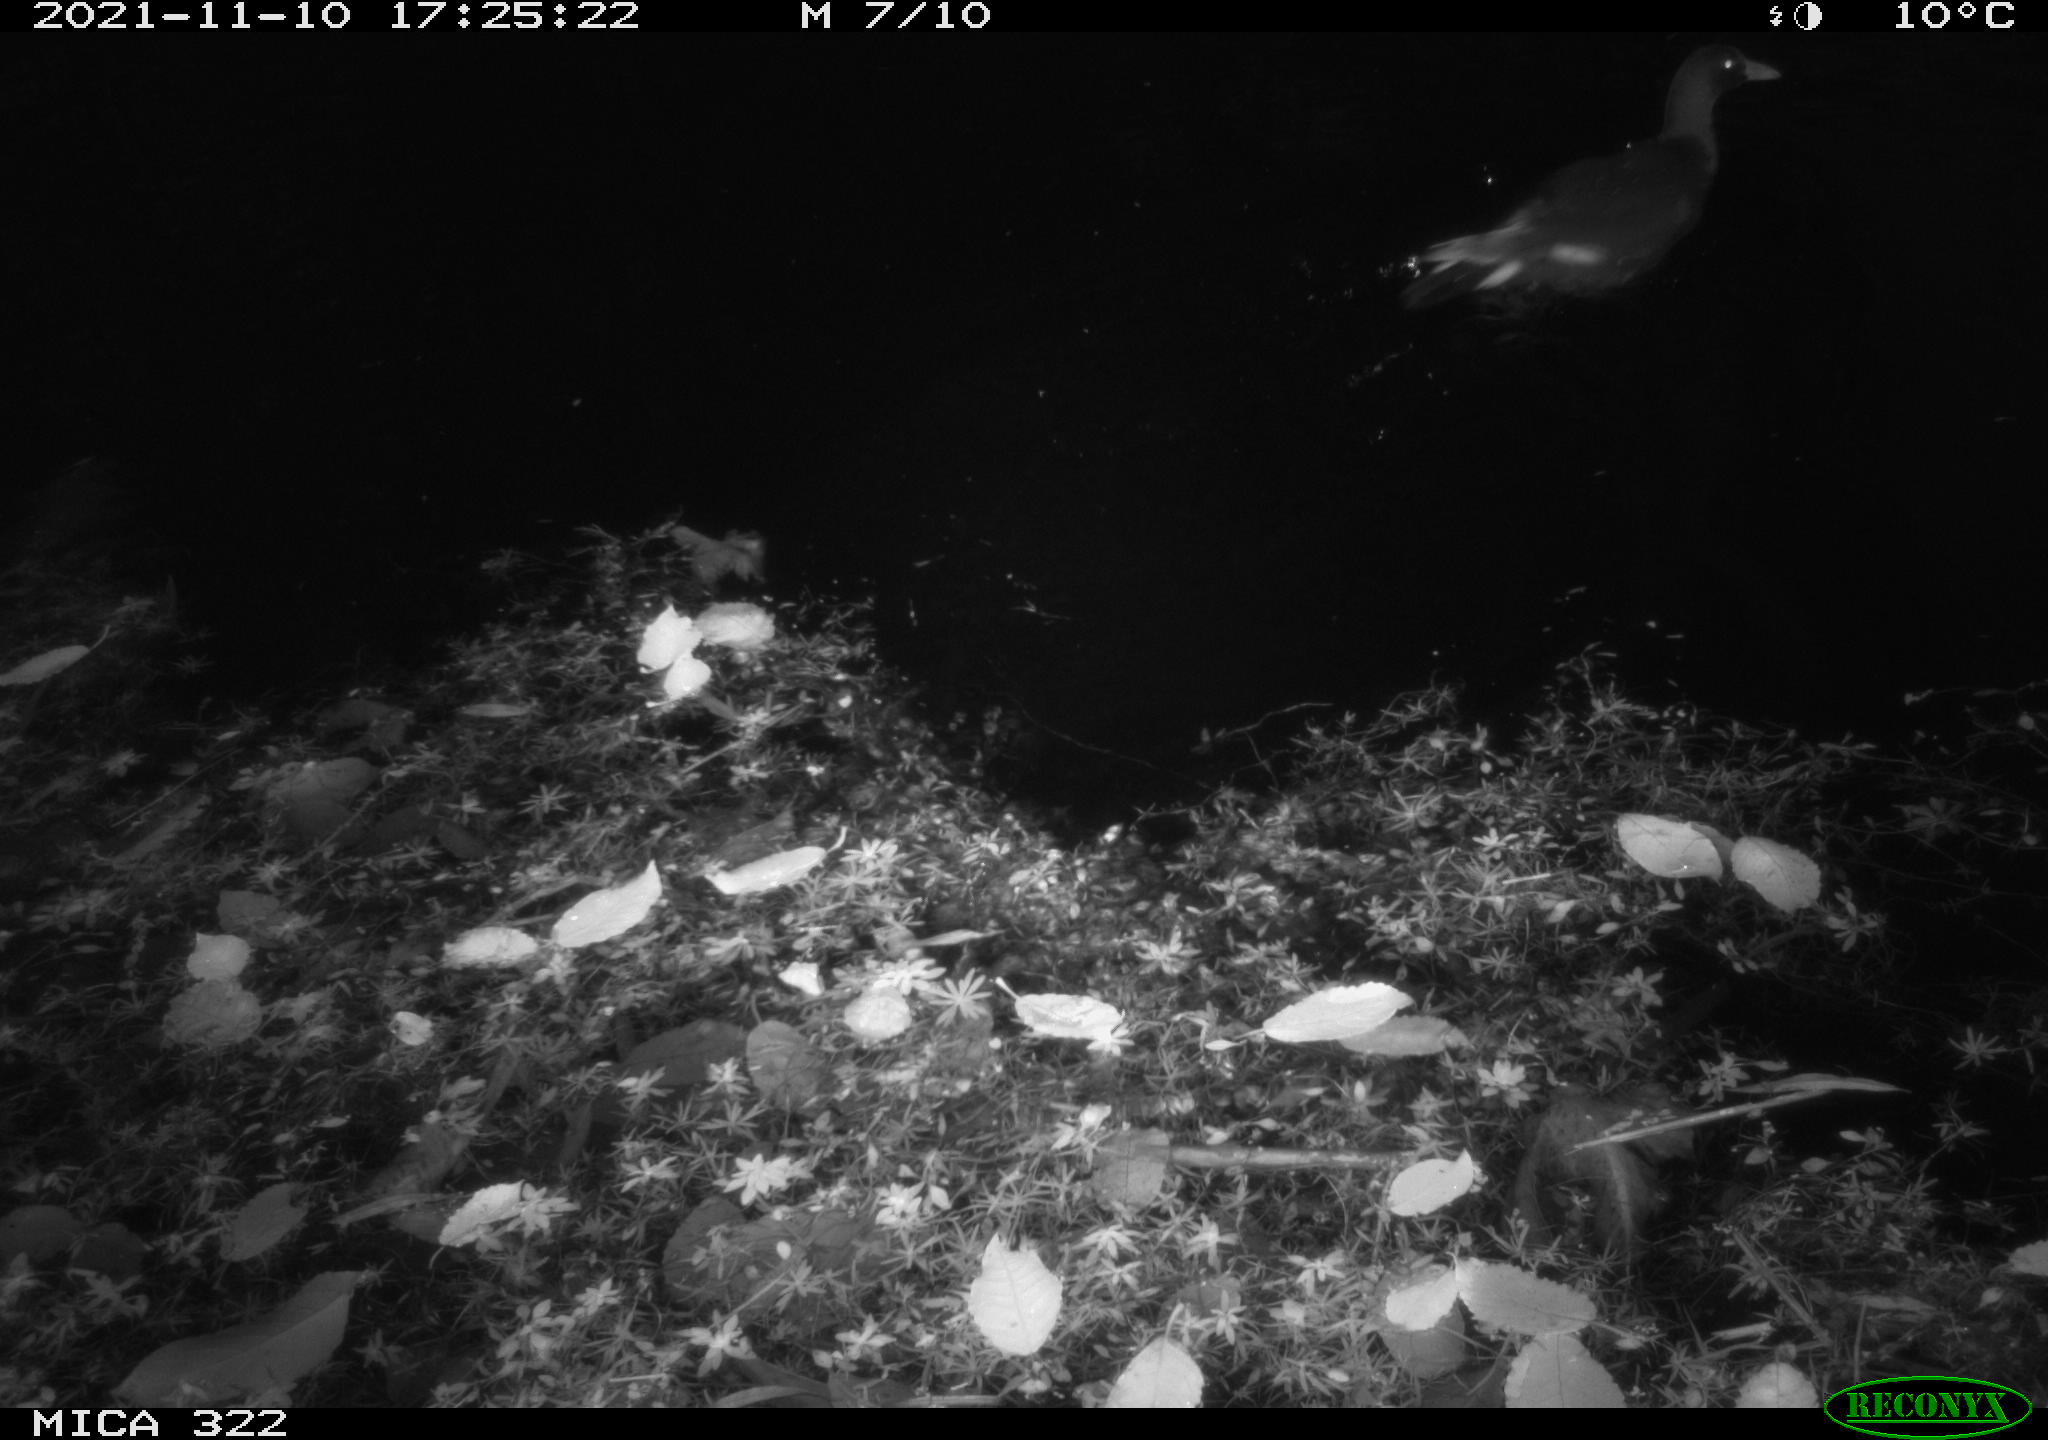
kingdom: Animalia
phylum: Chordata
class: Aves
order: Gruiformes
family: Rallidae
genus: Gallinula
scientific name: Gallinula chloropus
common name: Common moorhen
